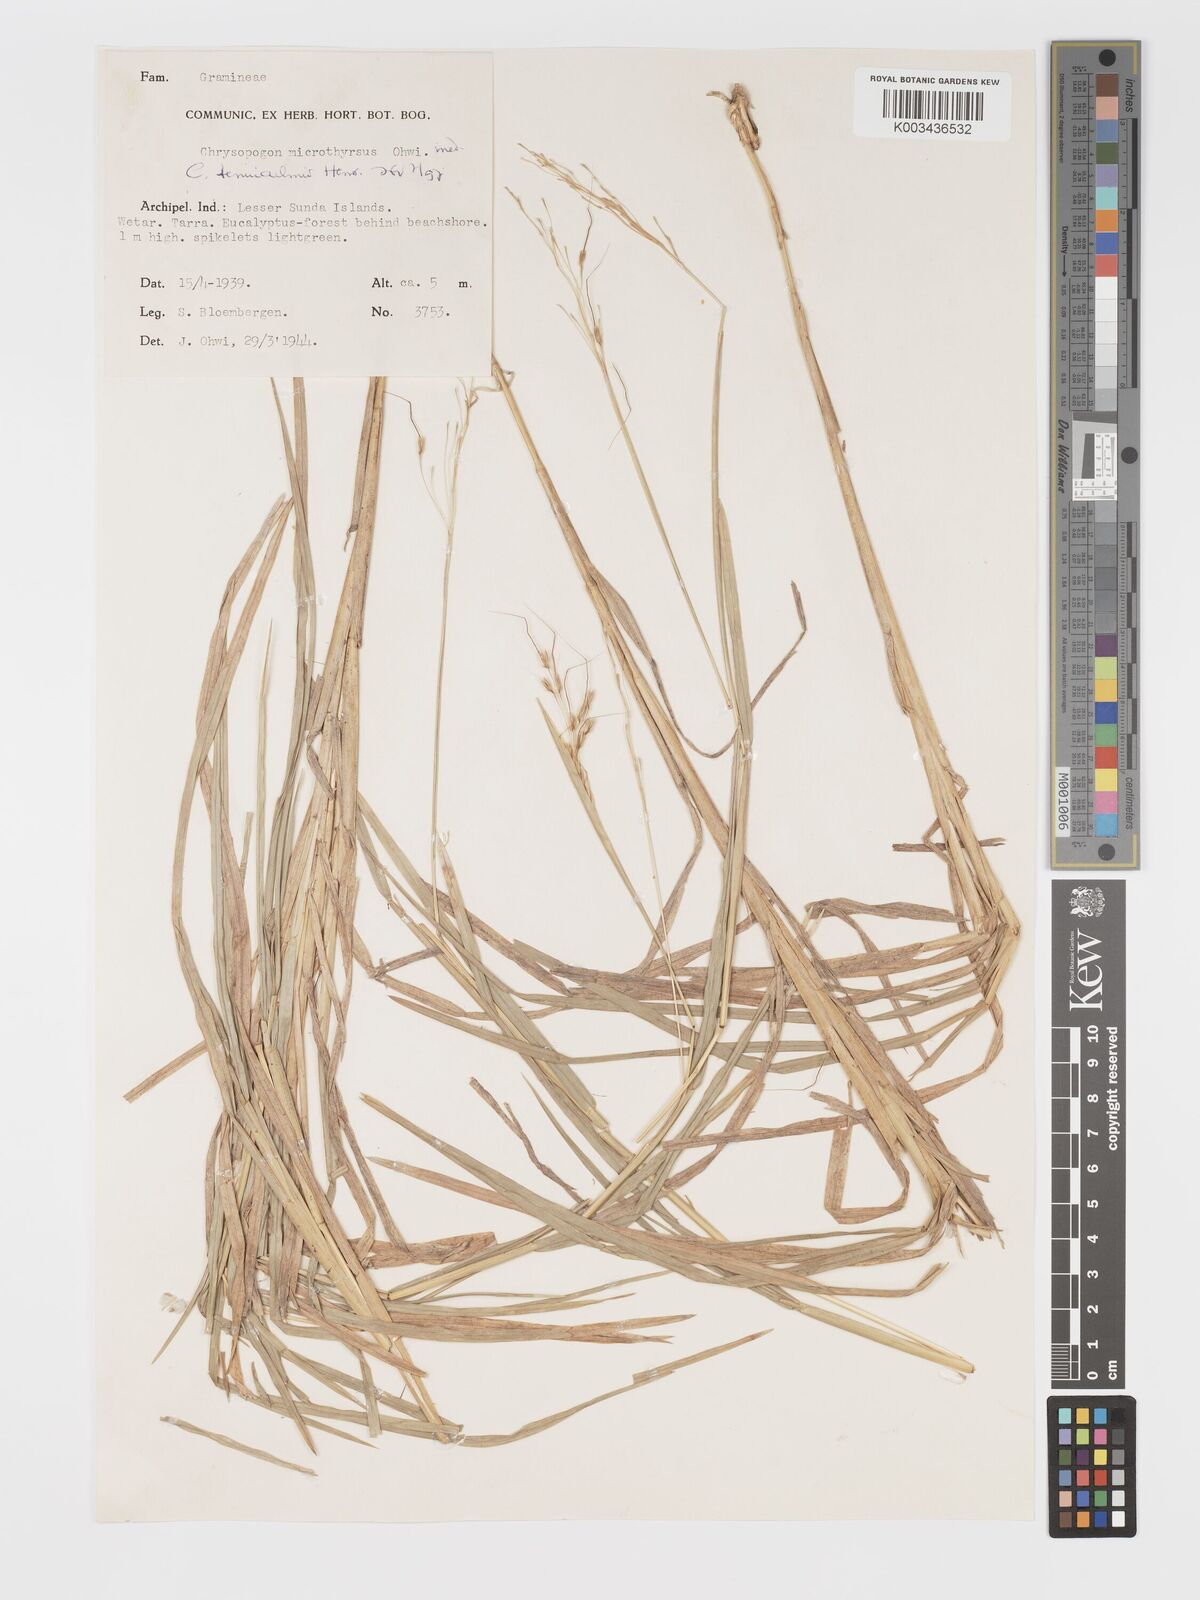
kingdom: Plantae
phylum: Tracheophyta
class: Liliopsida
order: Poales
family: Poaceae
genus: Chrysopogon
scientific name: Chrysopogon tenuiculmis
